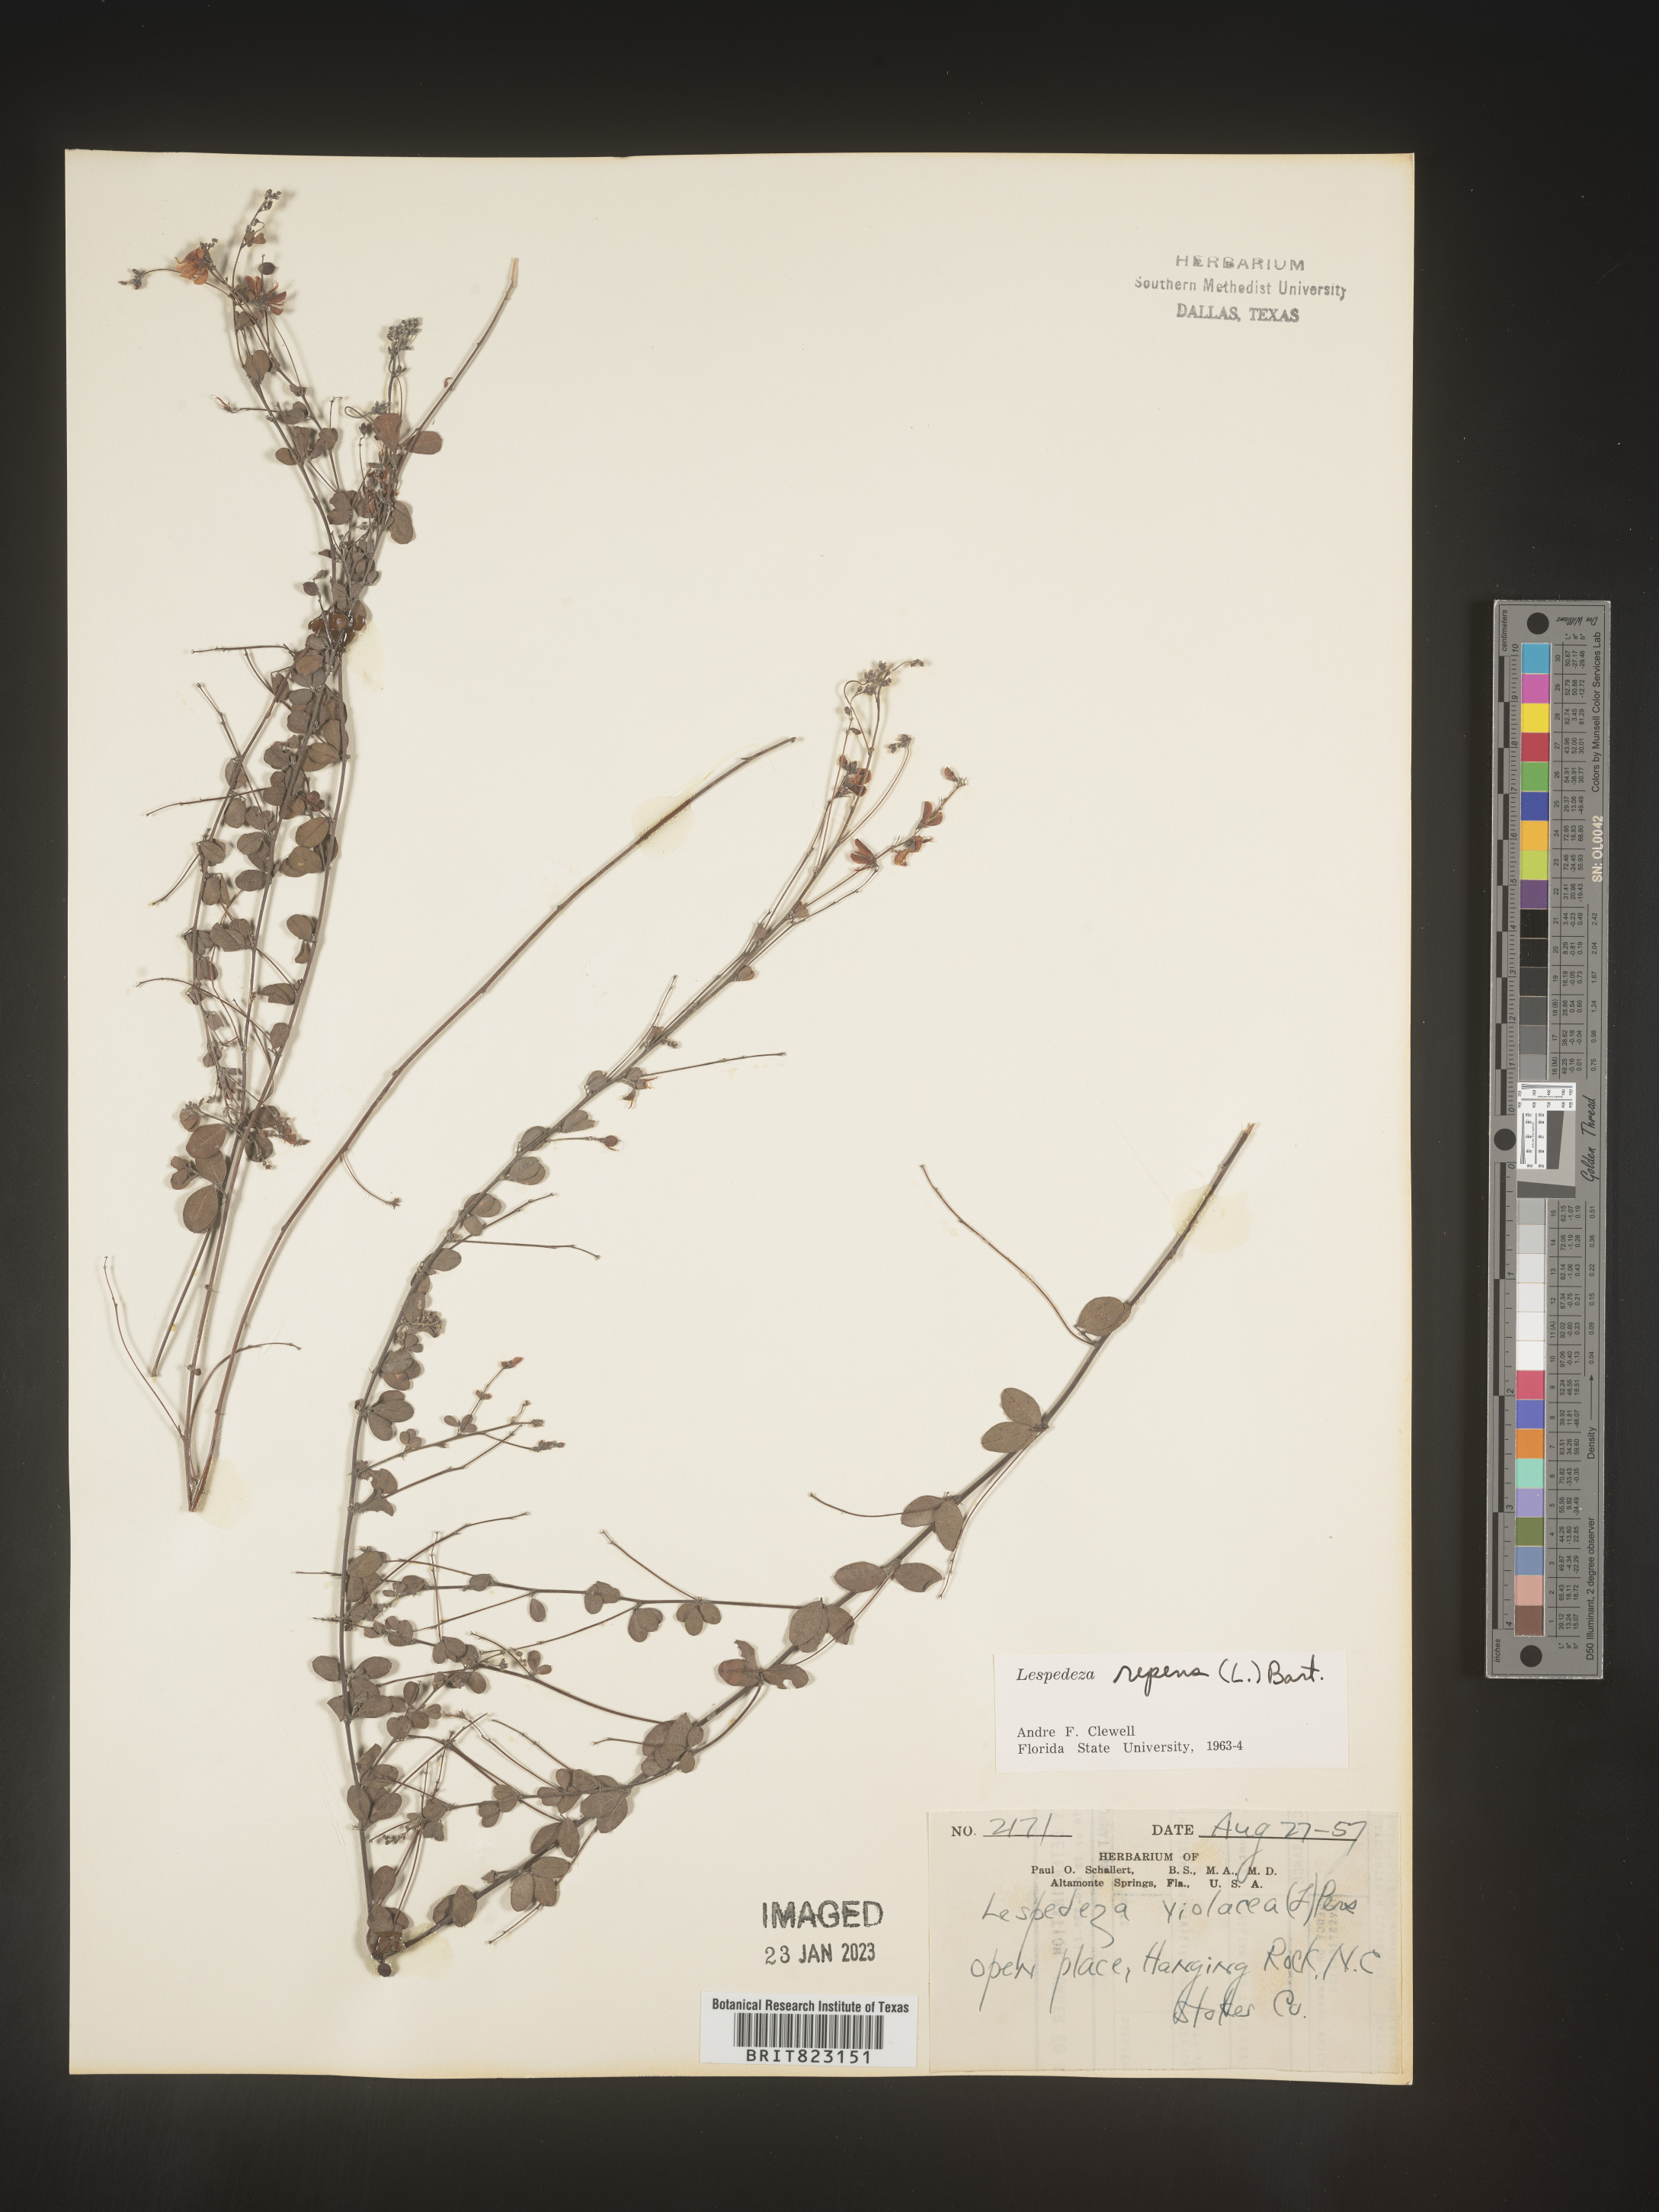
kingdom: Plantae
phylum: Tracheophyta
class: Magnoliopsida
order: Fabales
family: Fabaceae
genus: Lespedeza
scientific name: Lespedeza repens
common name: Creeping bush-clover
